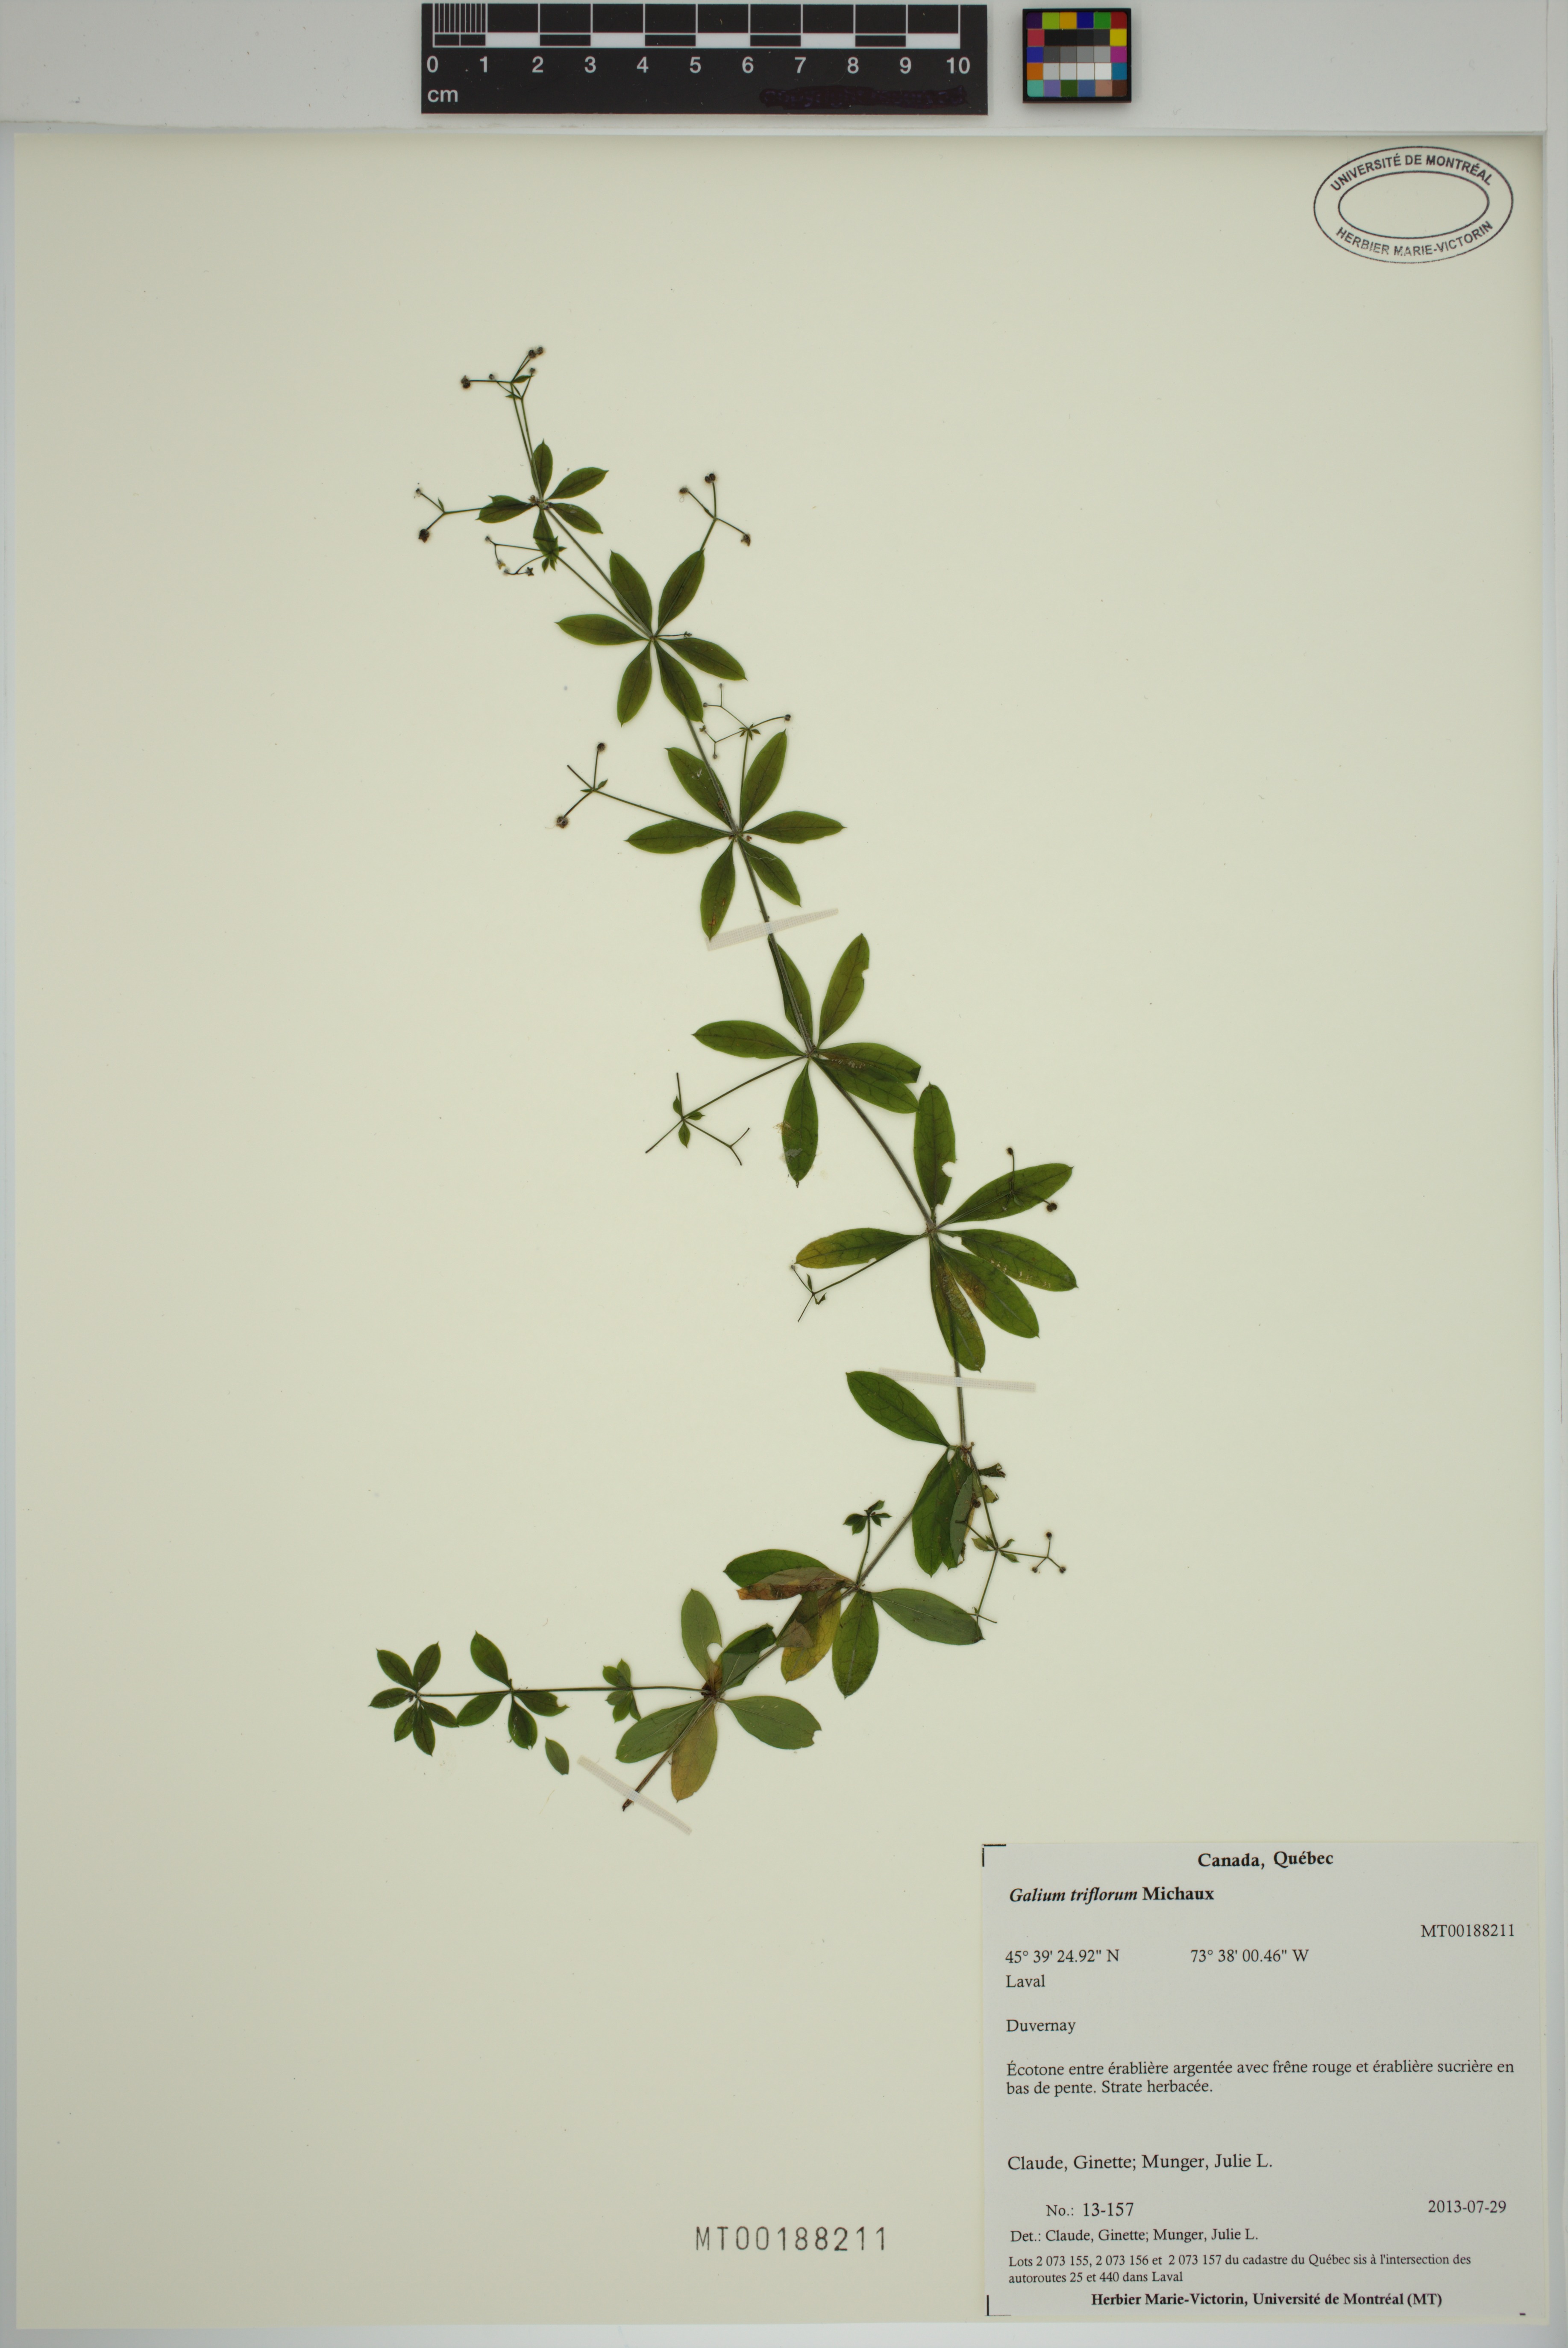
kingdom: Plantae
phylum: Tracheophyta
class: Magnoliopsida
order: Gentianales
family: Rubiaceae
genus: Galium
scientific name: Galium triflorum
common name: Fragrant bedstraw
